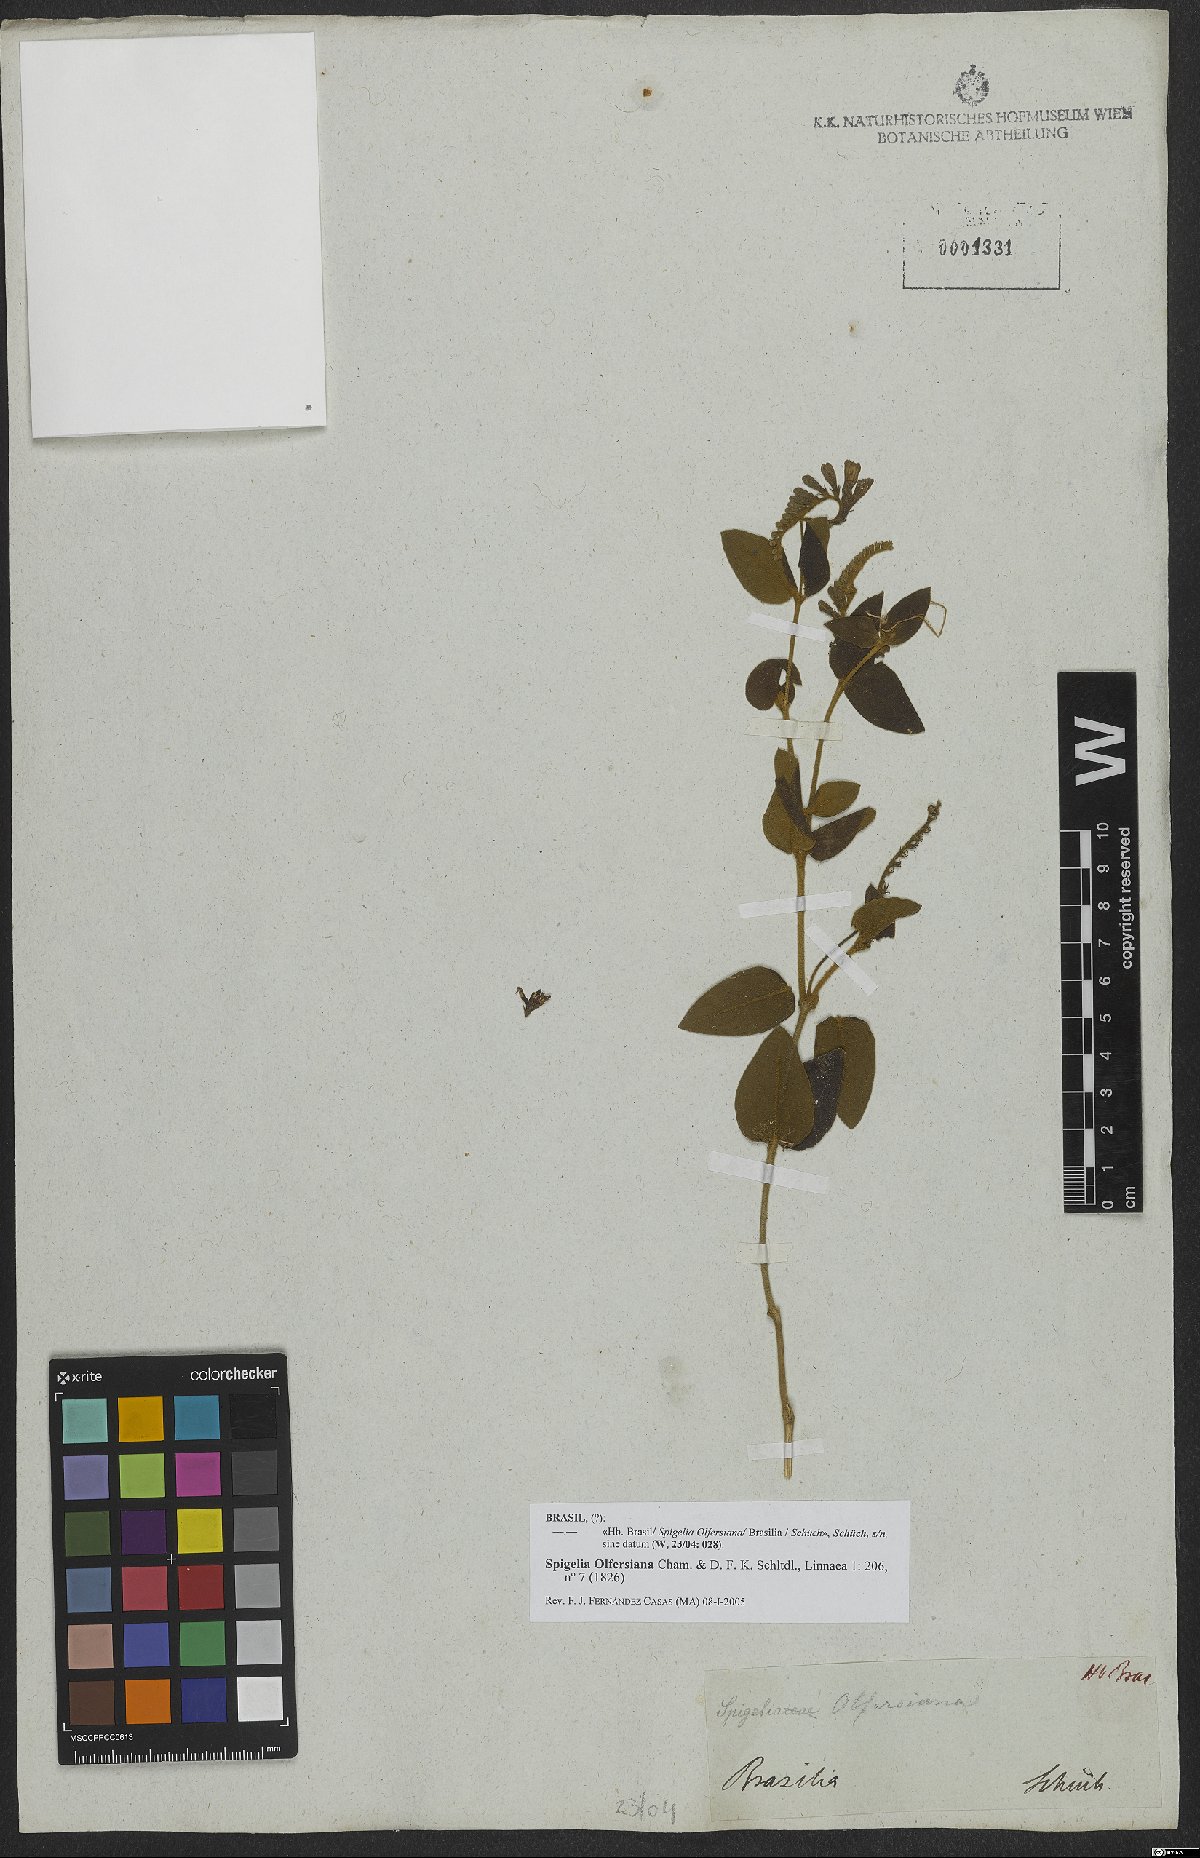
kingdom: Plantae
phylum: Tracheophyta
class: Magnoliopsida
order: Gentianales
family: Loganiaceae
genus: Spigelia
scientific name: Spigelia olfersiana
